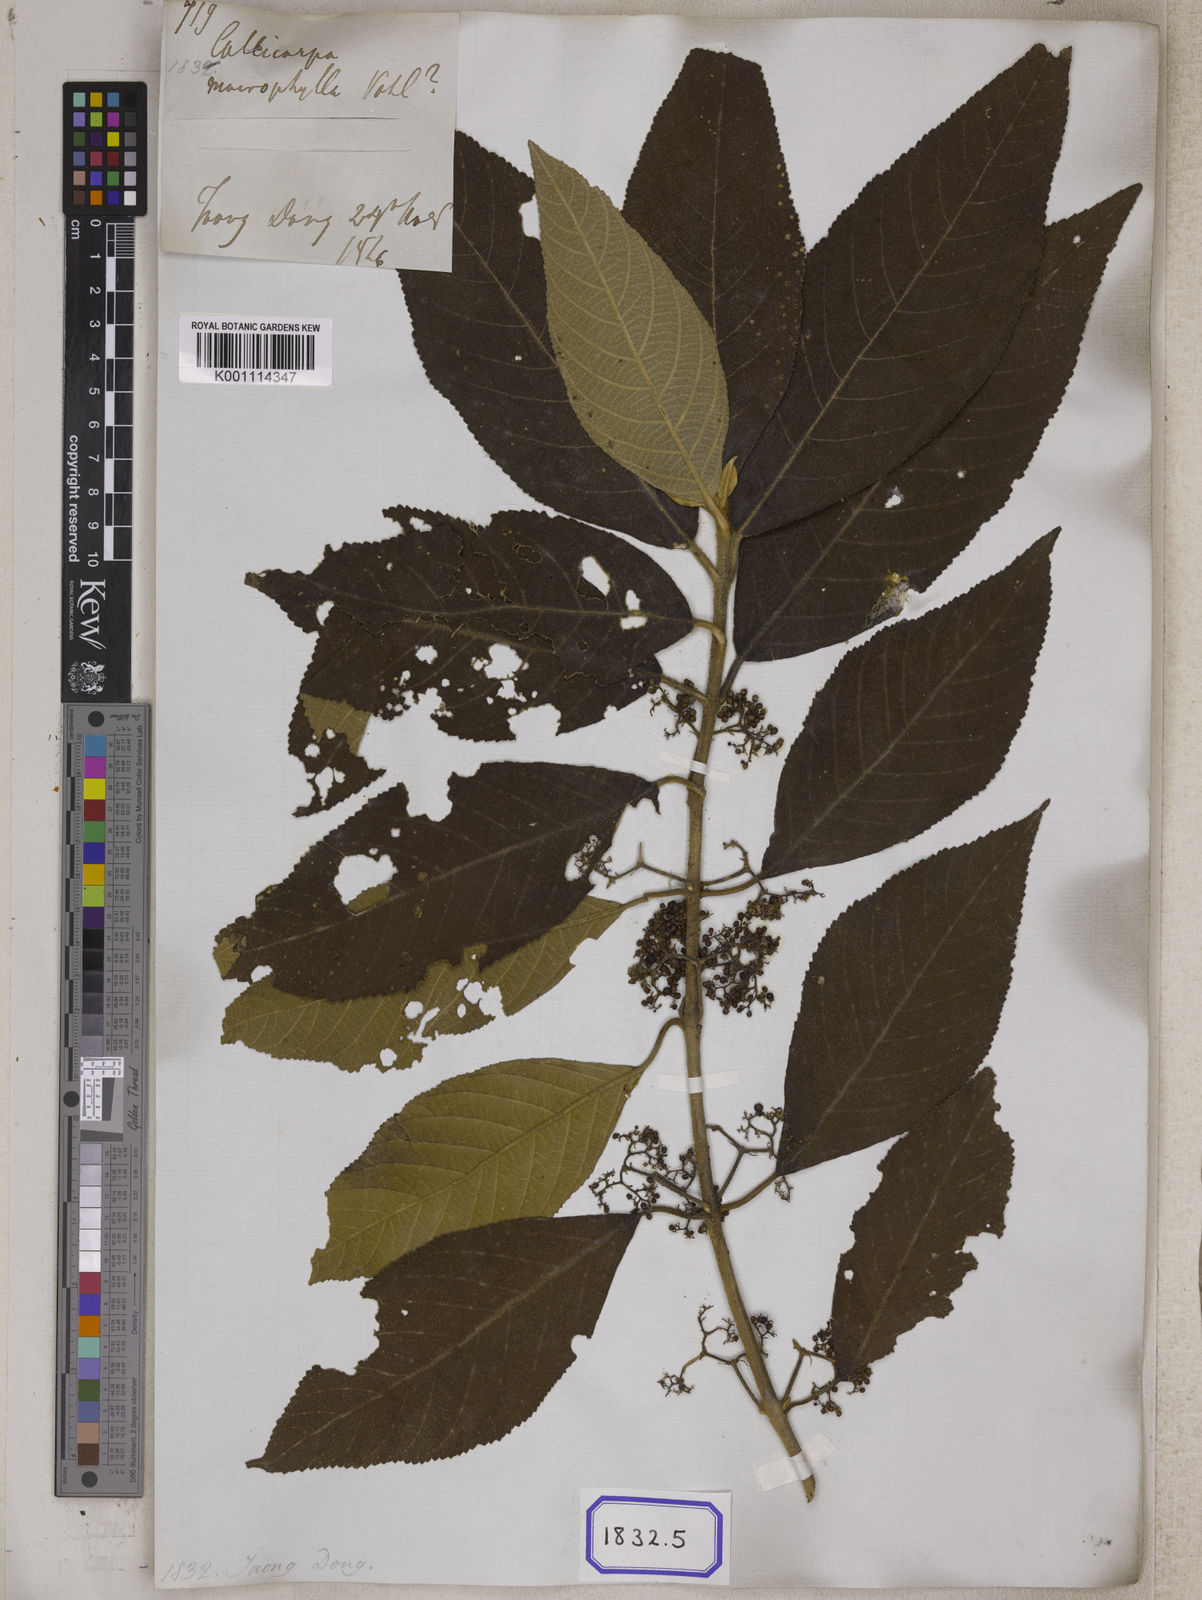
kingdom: Plantae
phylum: Tracheophyta
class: Magnoliopsida
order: Lamiales
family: Lamiaceae
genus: Callicarpa
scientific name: Callicarpa macrophylla
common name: Urn-fruit beauty-berry
